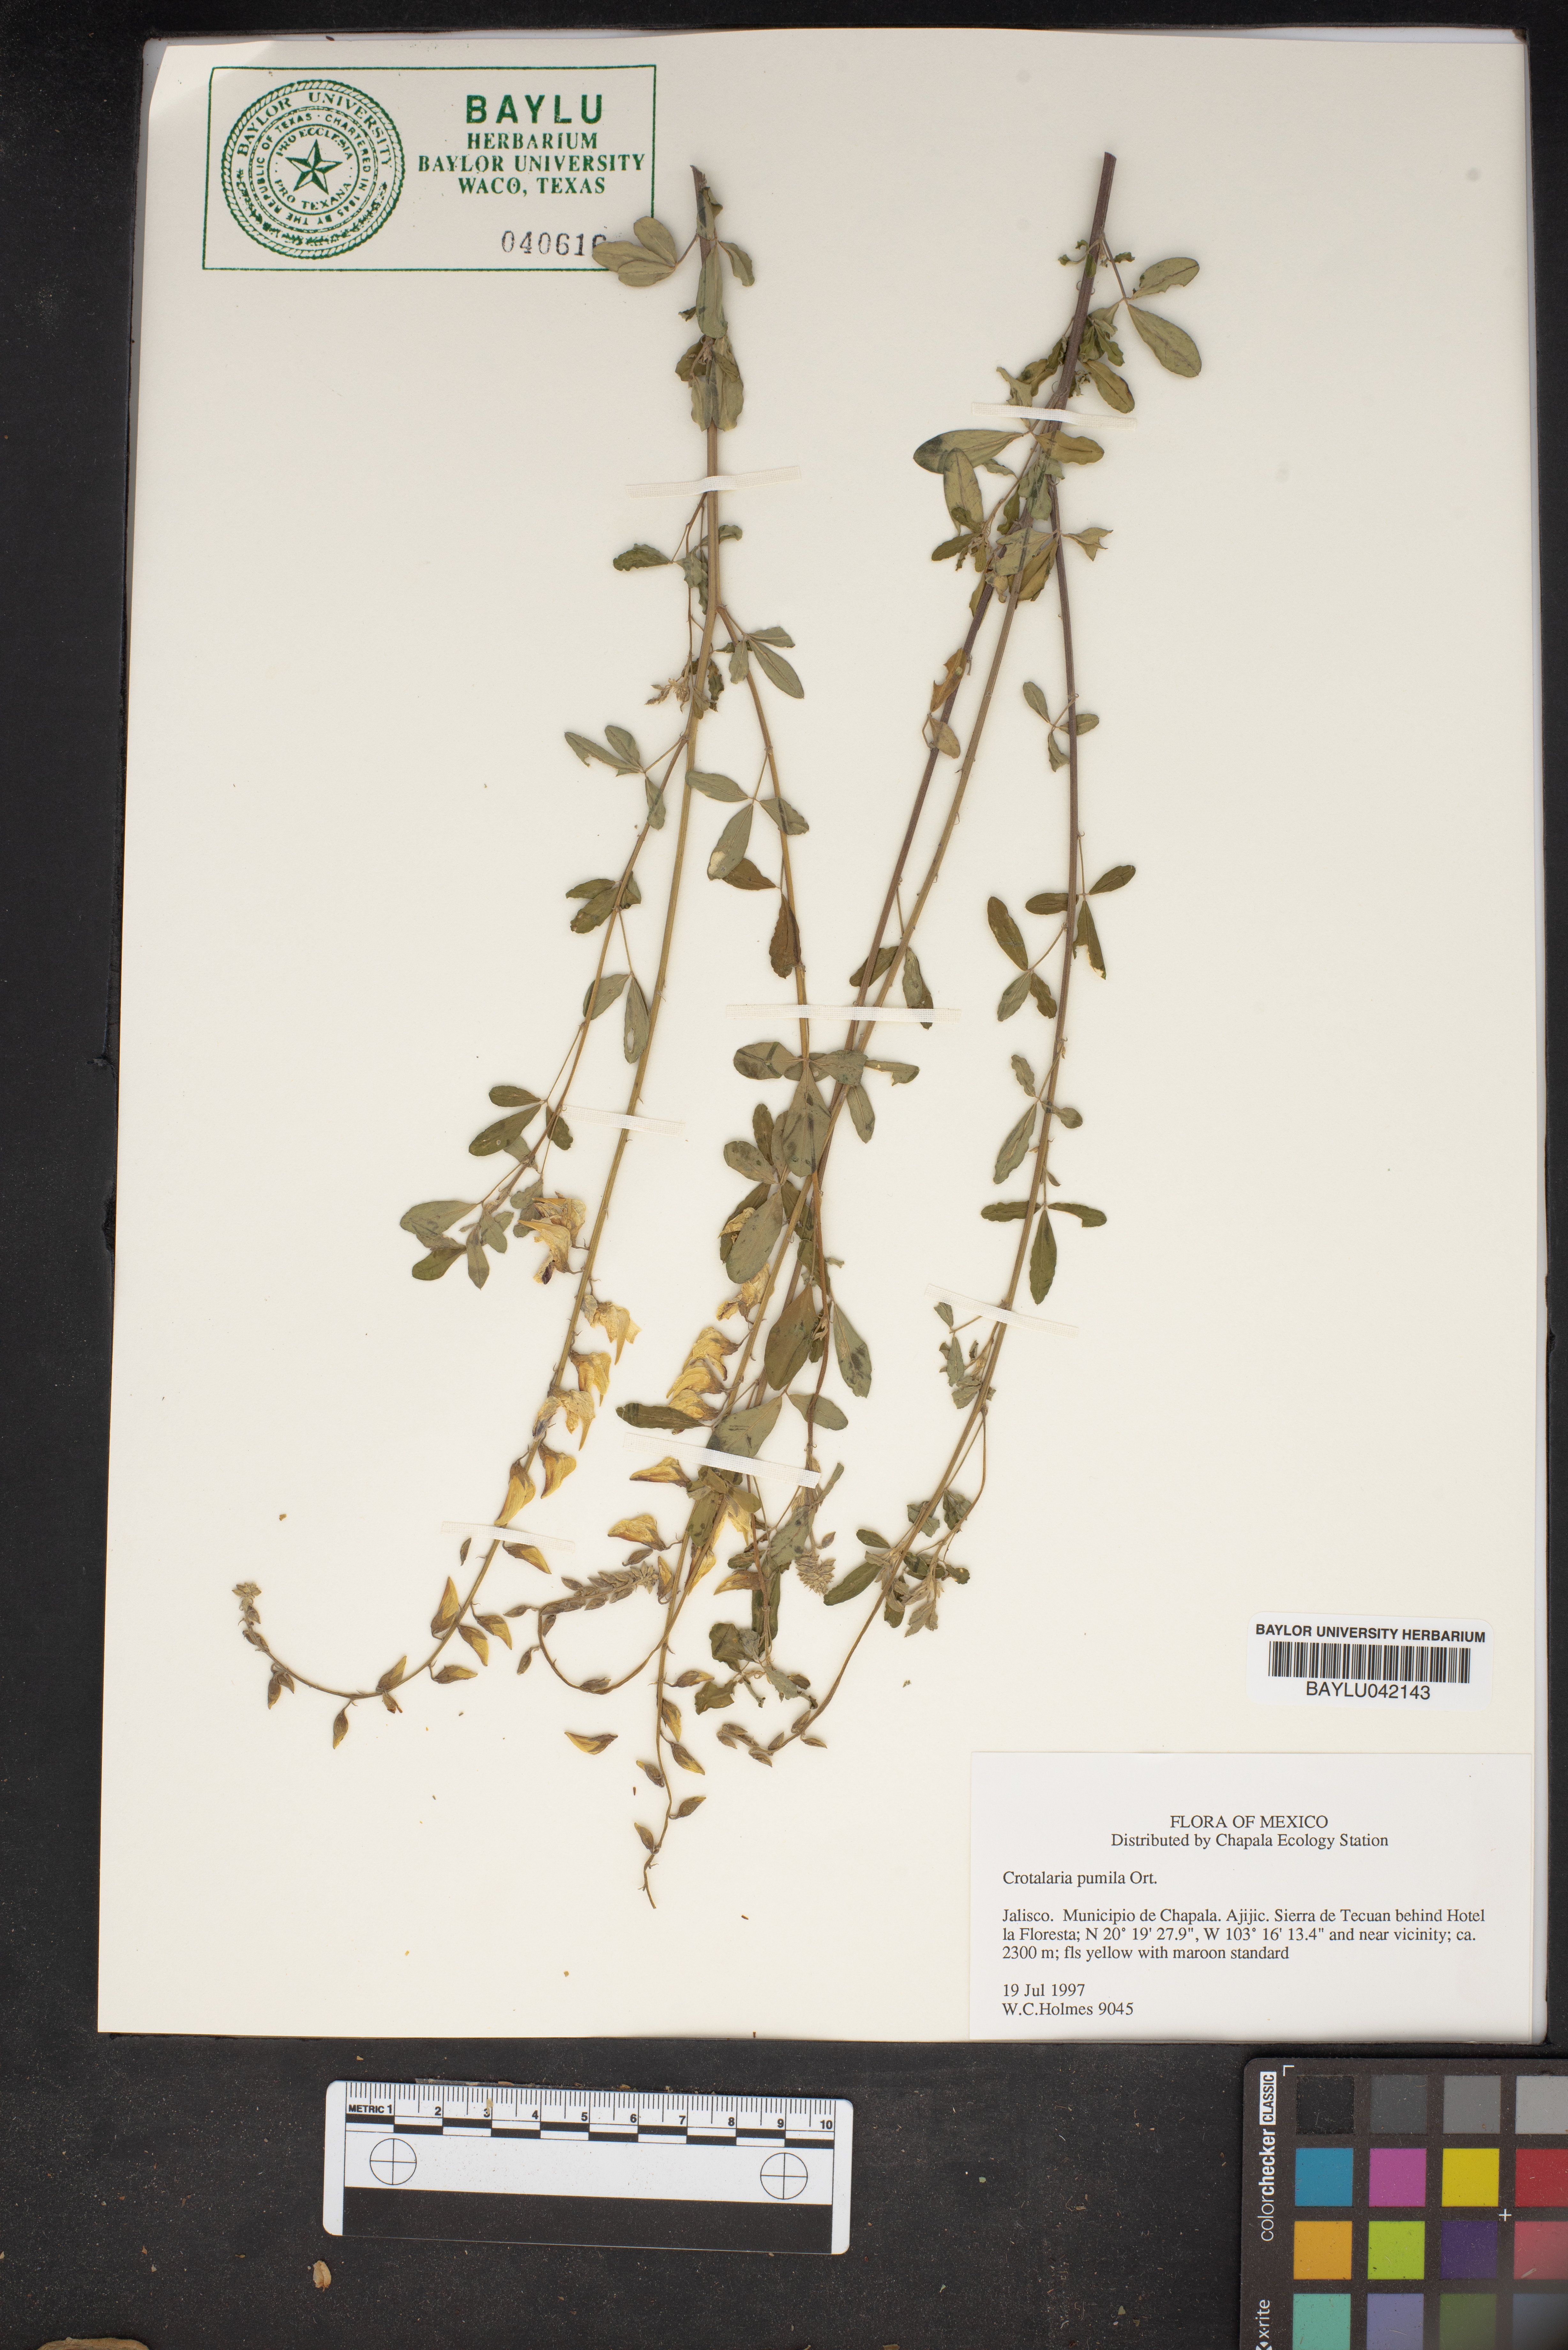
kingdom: Plantae
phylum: Tracheophyta
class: Magnoliopsida
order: Fabales
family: Fabaceae
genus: Crotalaria
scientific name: Crotalaria pumila
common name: Low rattlebox
